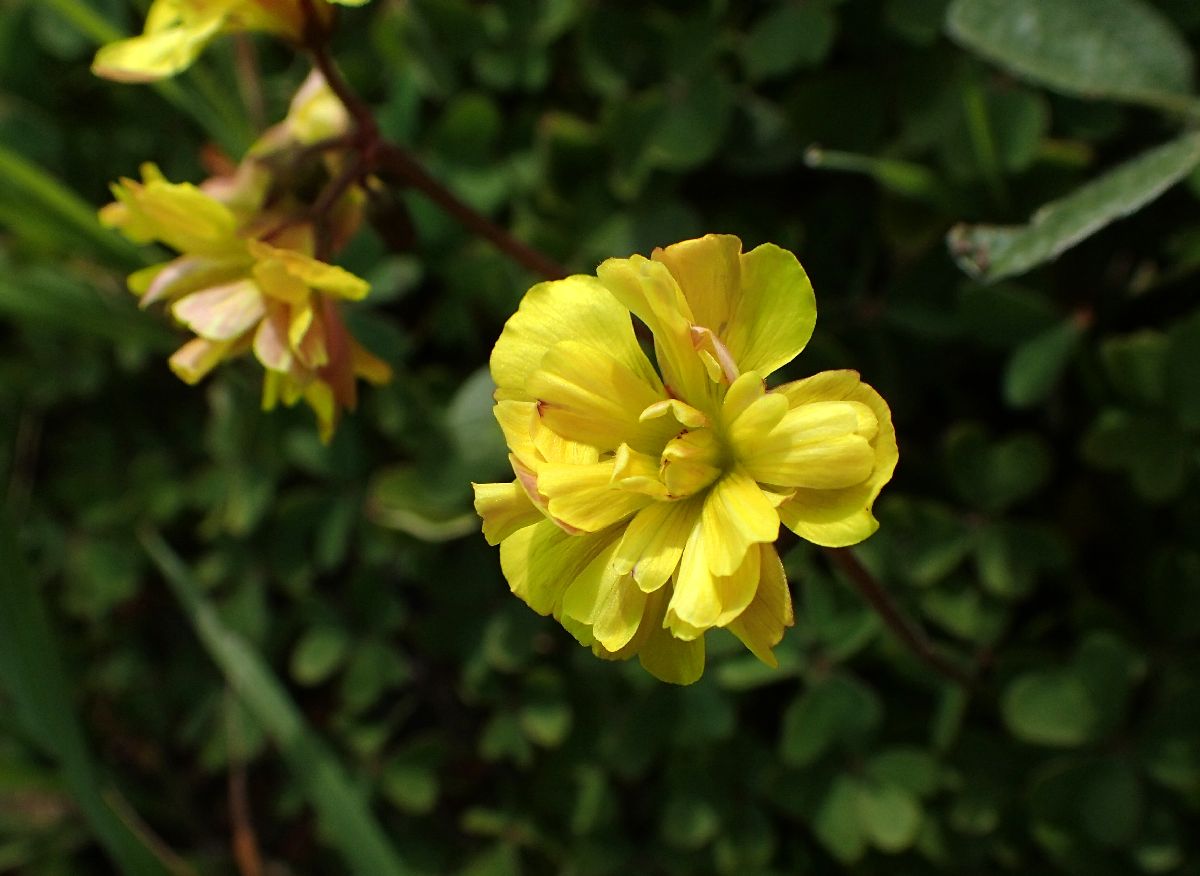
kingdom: Plantae
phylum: Tracheophyta
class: Magnoliopsida
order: Oxalidales
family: Oxalidaceae
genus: Oxalis
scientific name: Oxalis pes-caprae
